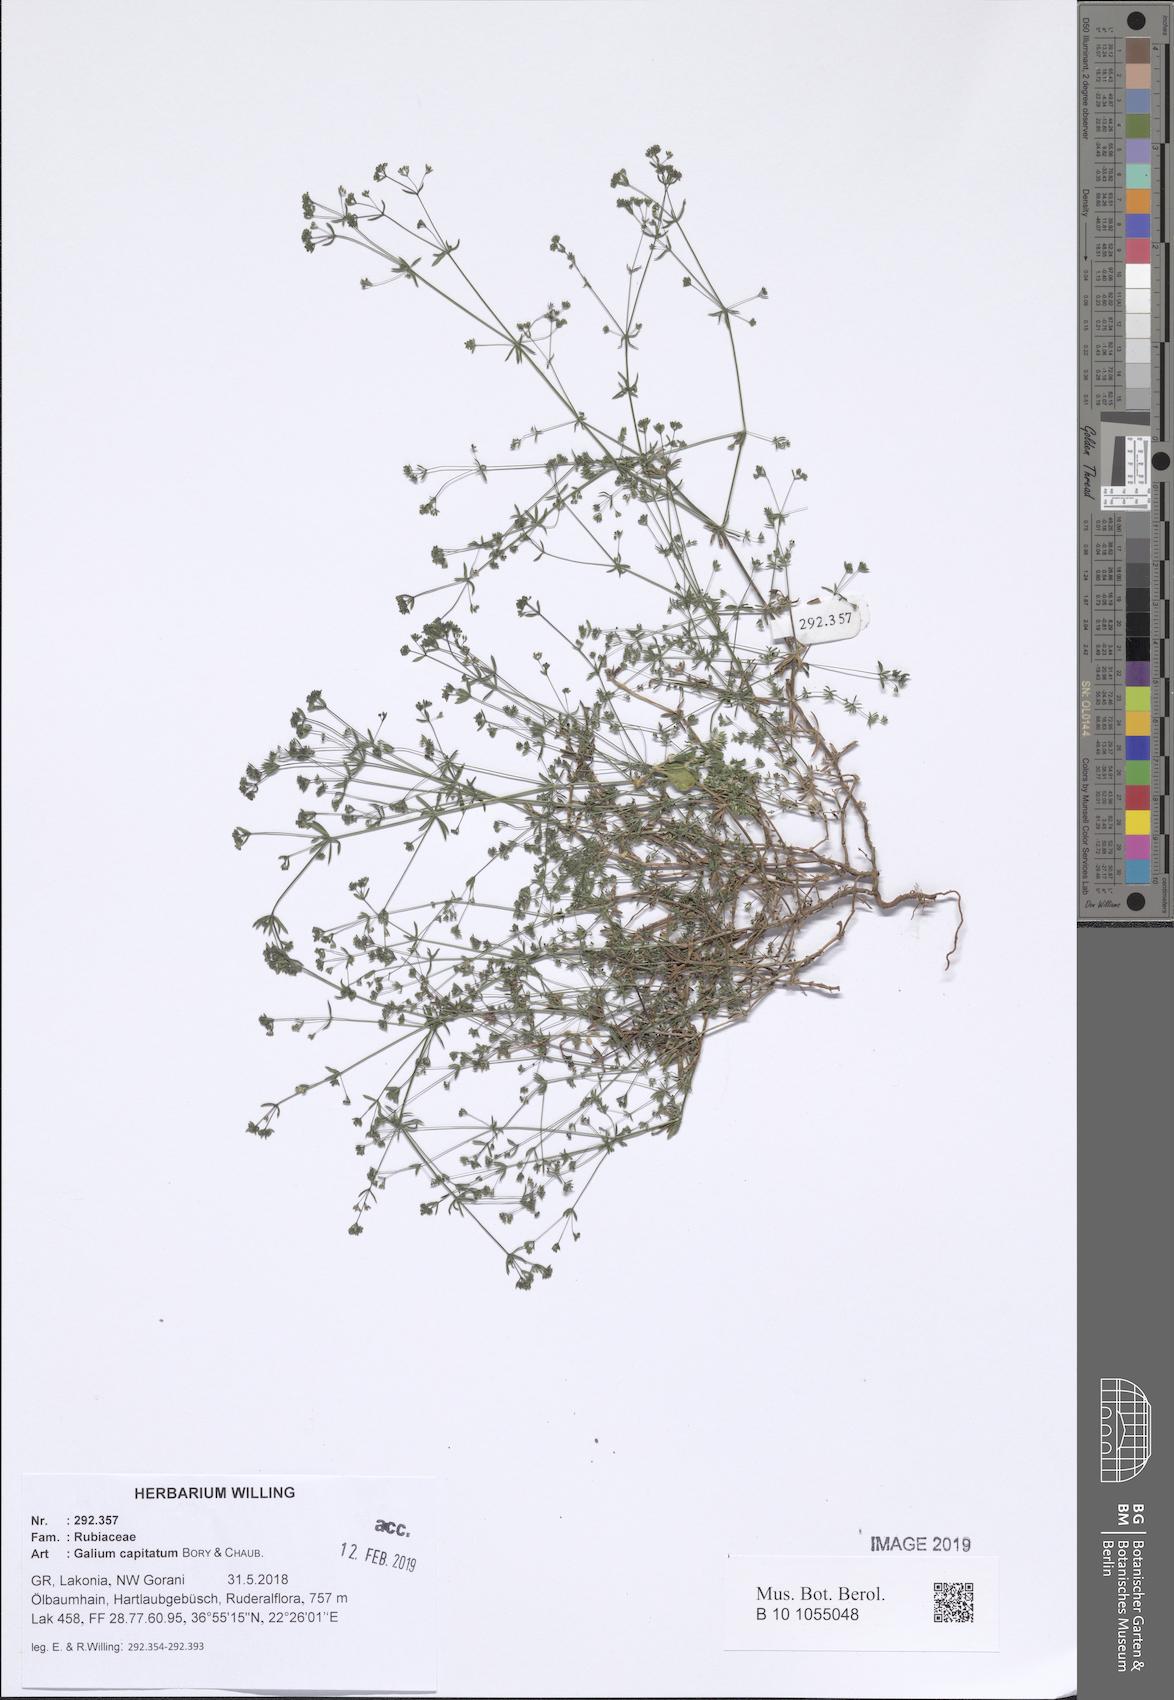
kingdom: Plantae
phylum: Tracheophyta
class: Magnoliopsida
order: Gentianales
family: Rubiaceae
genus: Galium
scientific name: Galium capitatum
